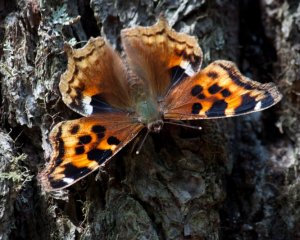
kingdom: Animalia
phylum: Arthropoda
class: Insecta
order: Lepidoptera
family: Nymphalidae
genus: Polygonia
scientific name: Polygonia vaualbum
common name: Compton Tortoiseshell
